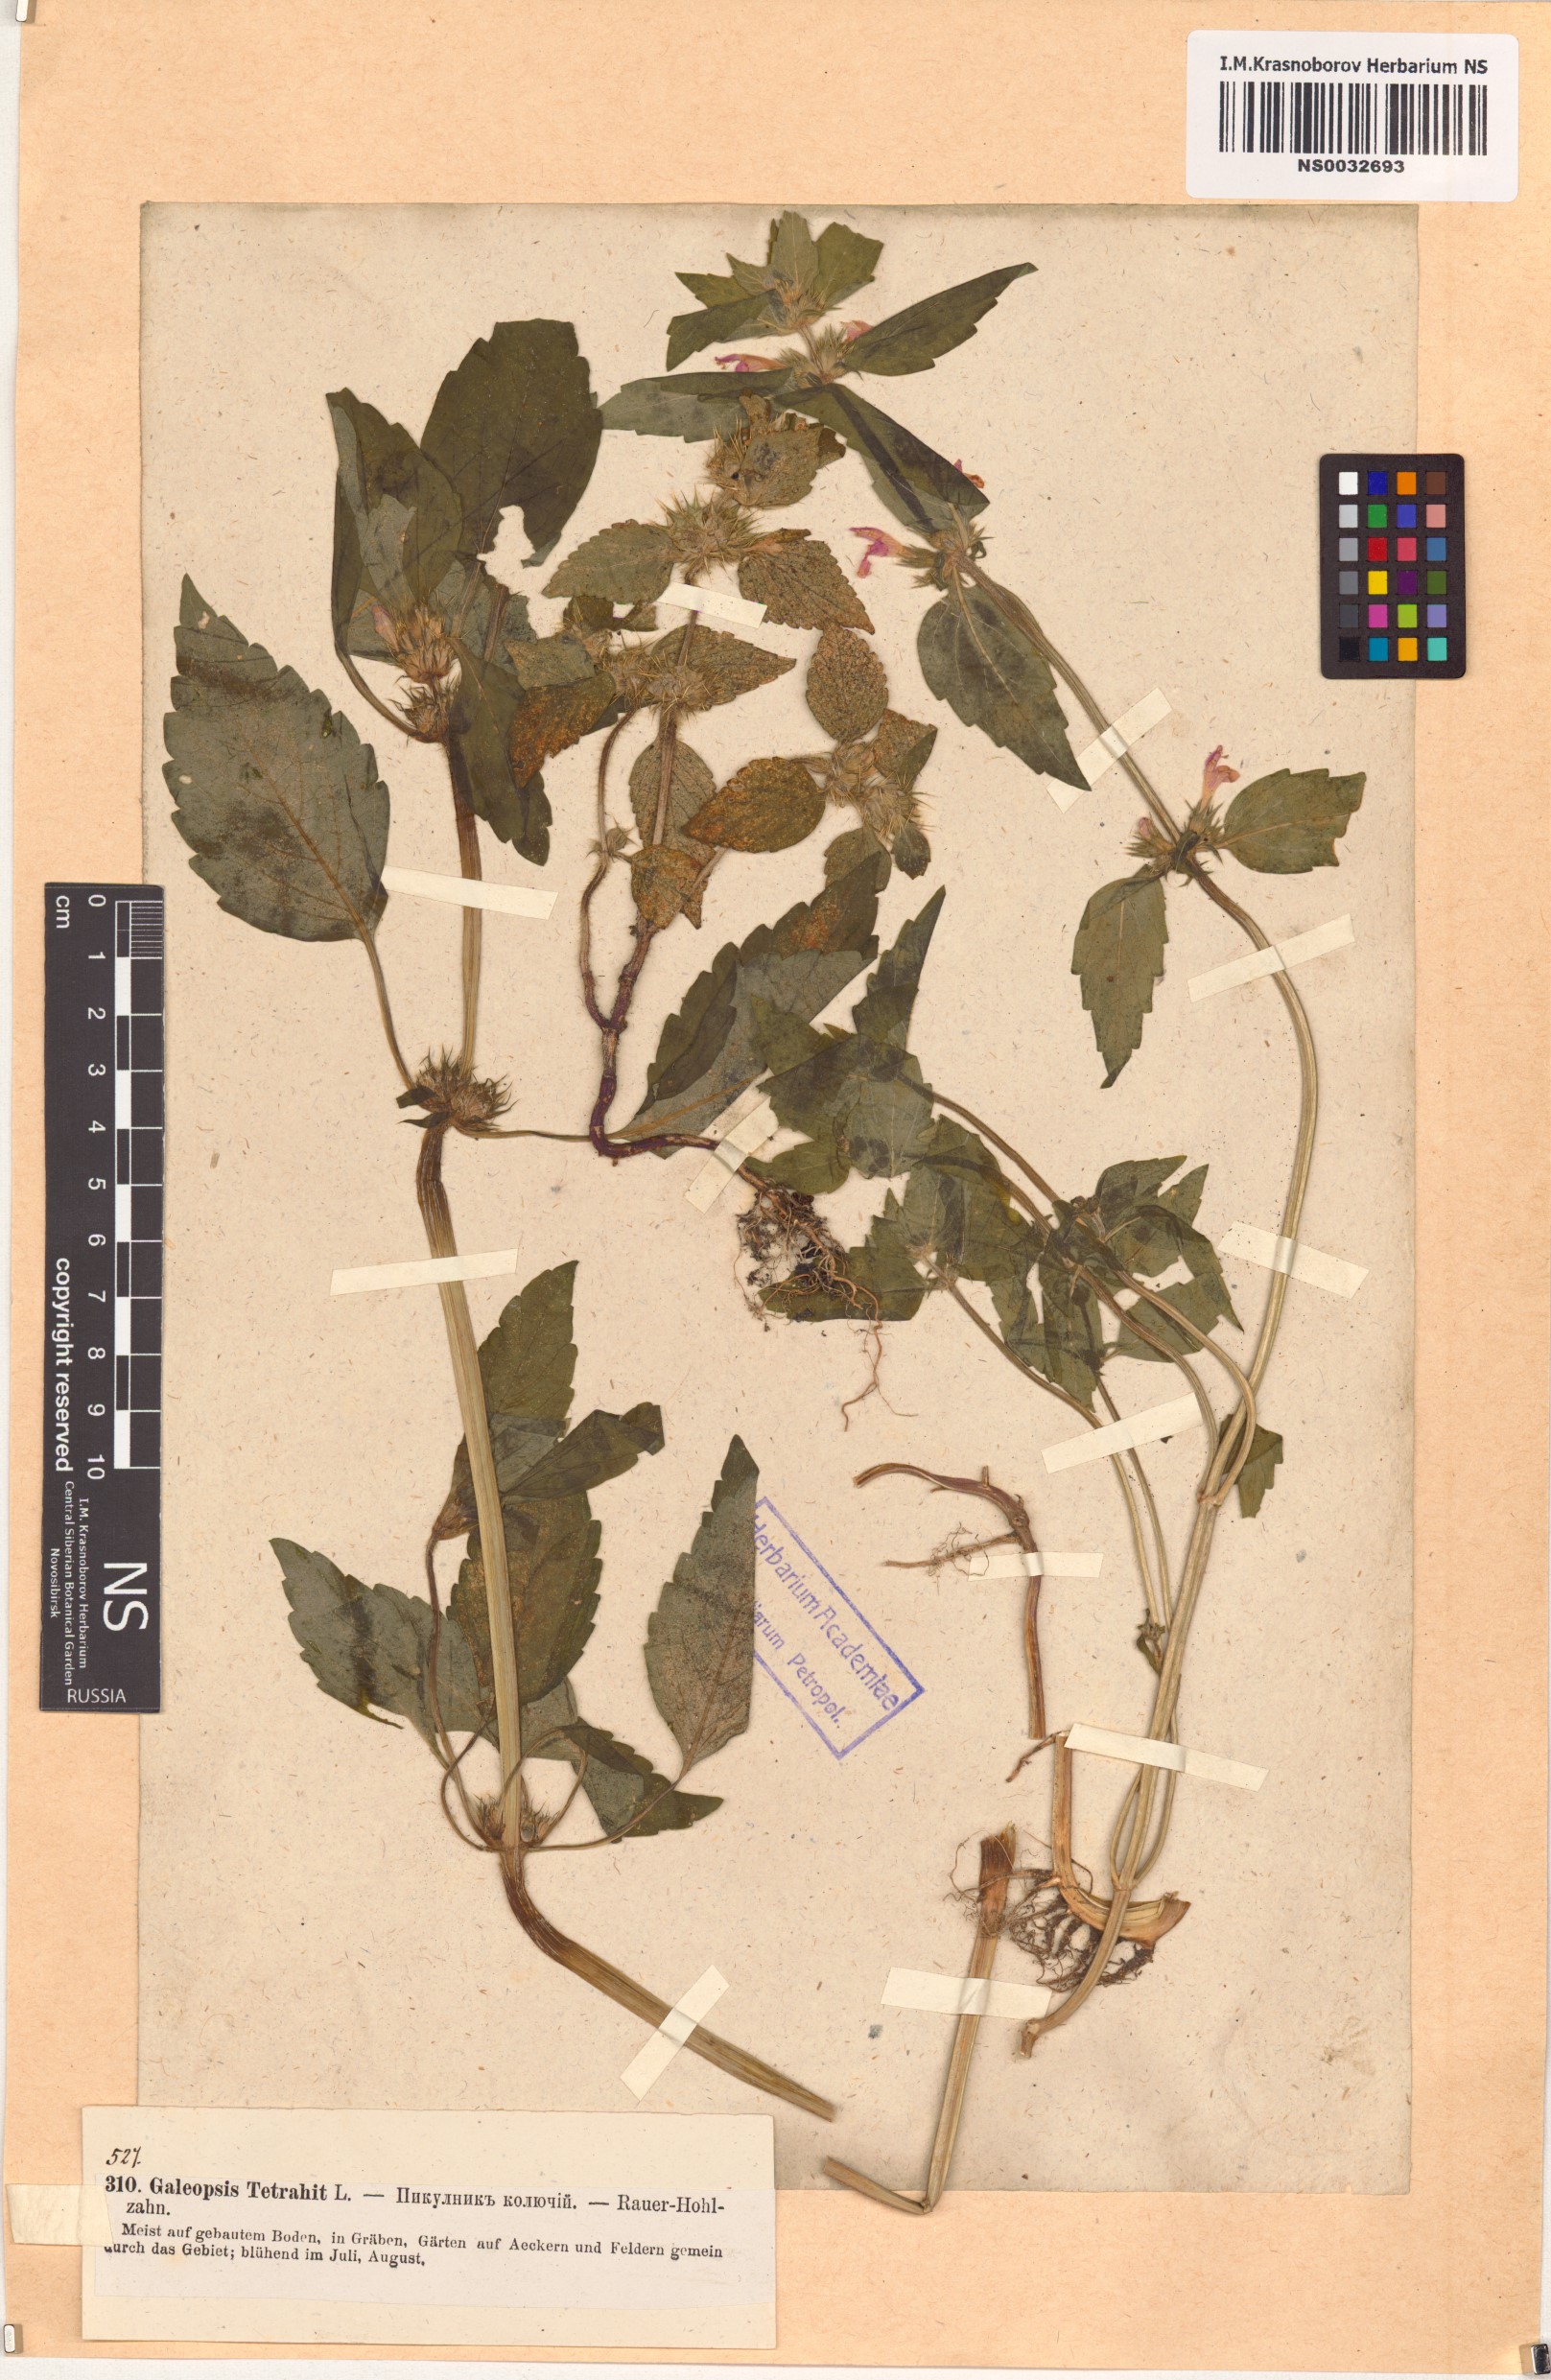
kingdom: Plantae
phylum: Tracheophyta
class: Magnoliopsida
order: Lamiales
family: Lamiaceae
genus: Galeopsis
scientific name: Galeopsis tetrahit
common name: Common hemp-nettle
